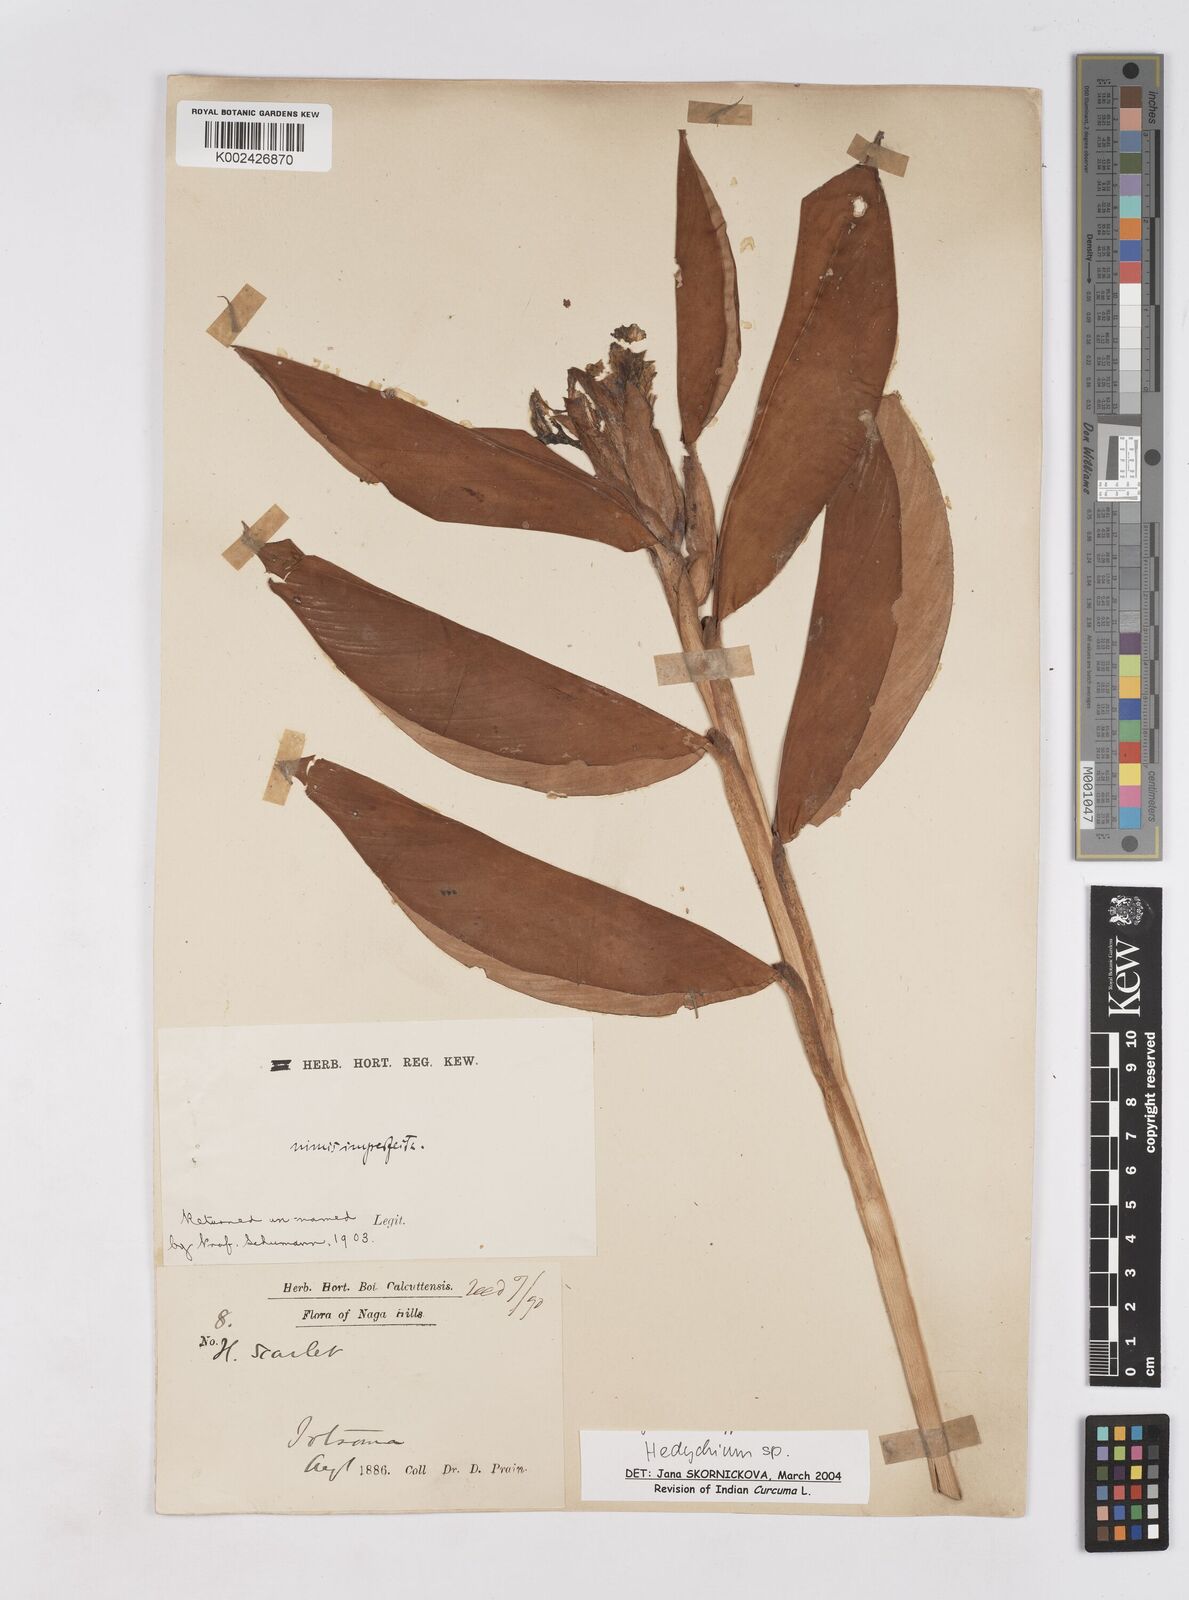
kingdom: Plantae
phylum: Tracheophyta
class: Liliopsida
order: Zingiberales
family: Zingiberaceae
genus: Hedychium
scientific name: Hedychium
